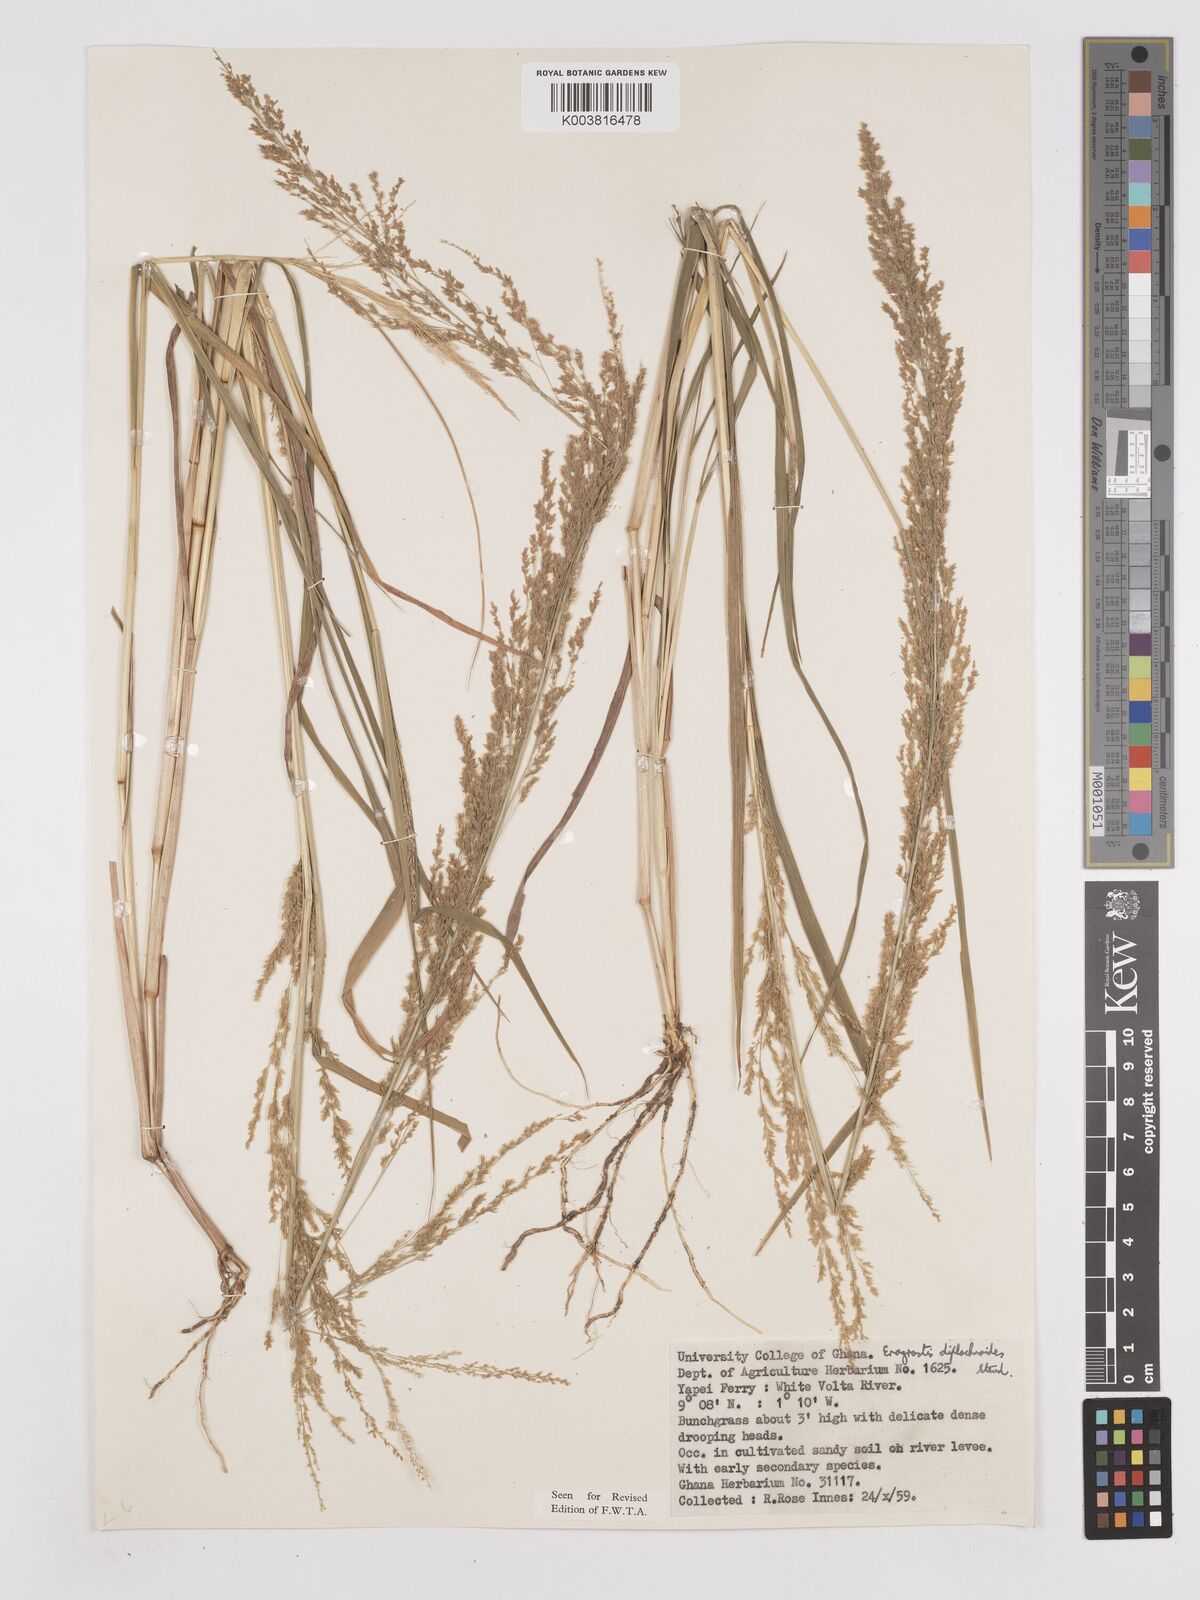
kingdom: Plantae
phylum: Tracheophyta
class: Liliopsida
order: Poales
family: Poaceae
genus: Eragrostis
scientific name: Eragrostis japonica
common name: Pond lovegrass
